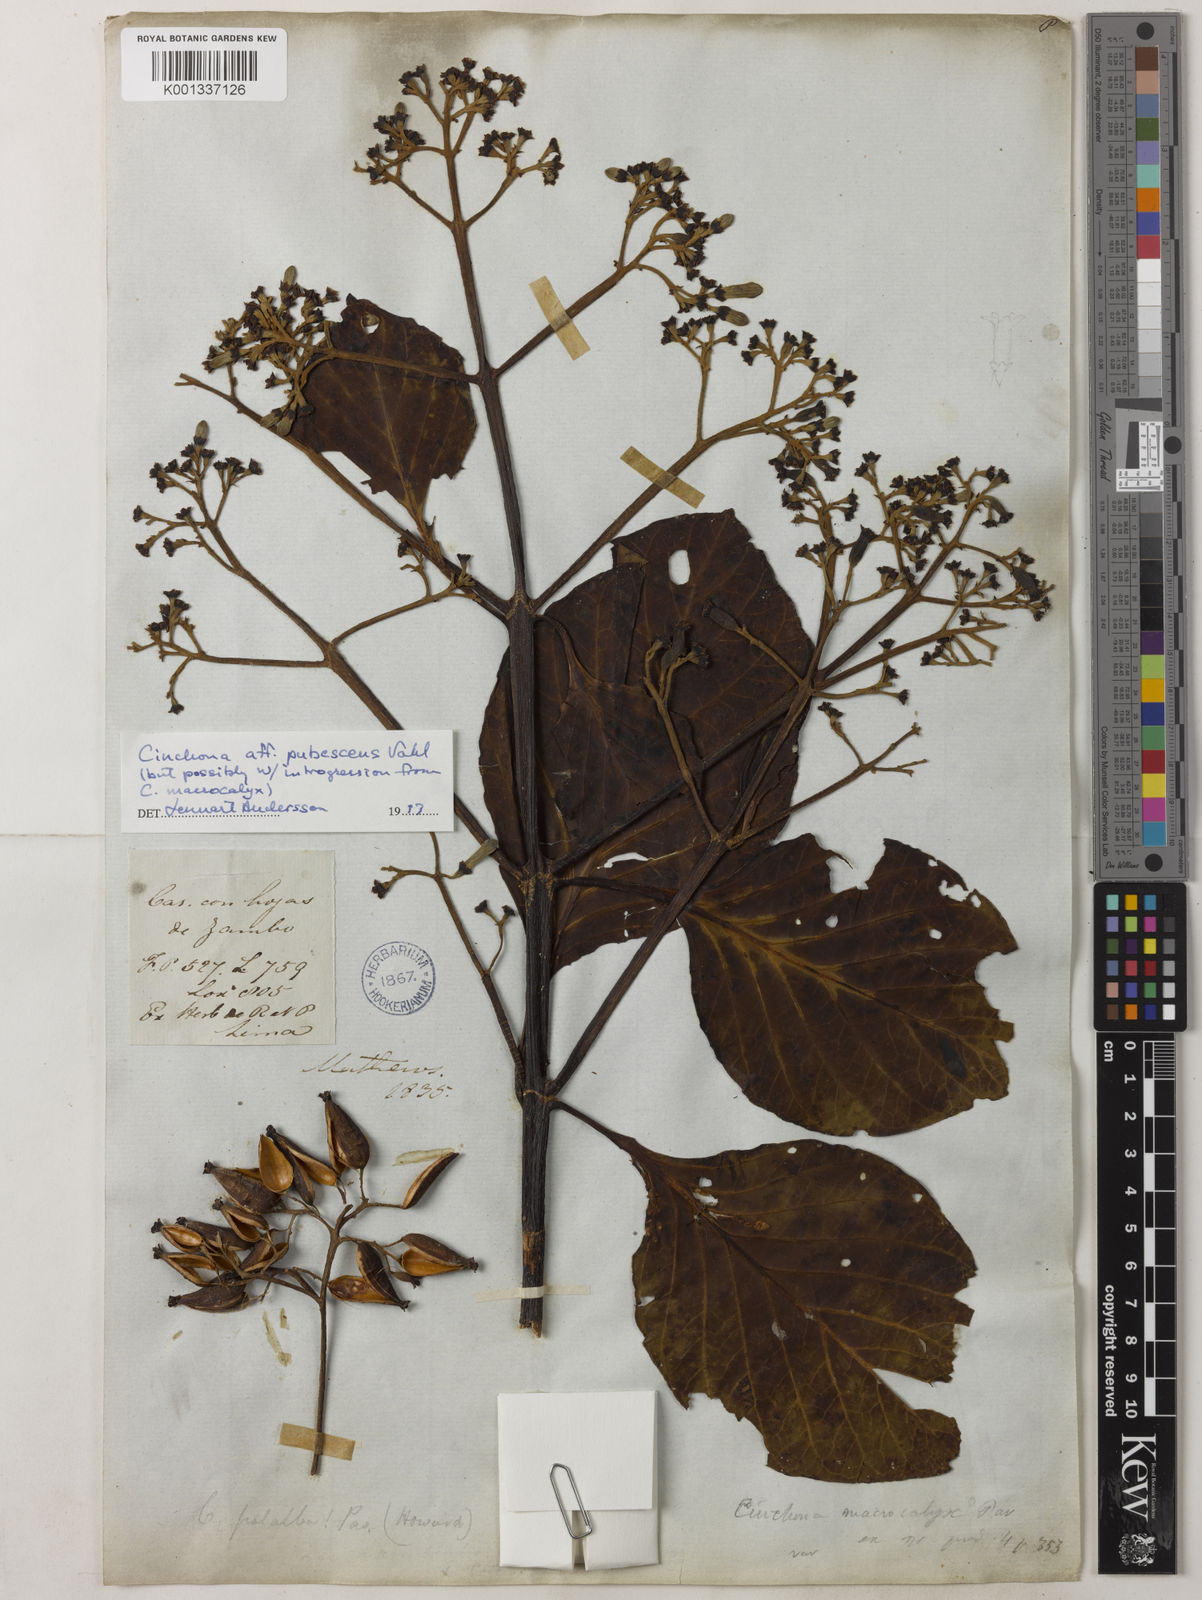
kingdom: Plantae
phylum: Tracheophyta
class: Magnoliopsida
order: Gentianales
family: Rubiaceae
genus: Cinchona
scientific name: Cinchona pubescens
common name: Quinine
